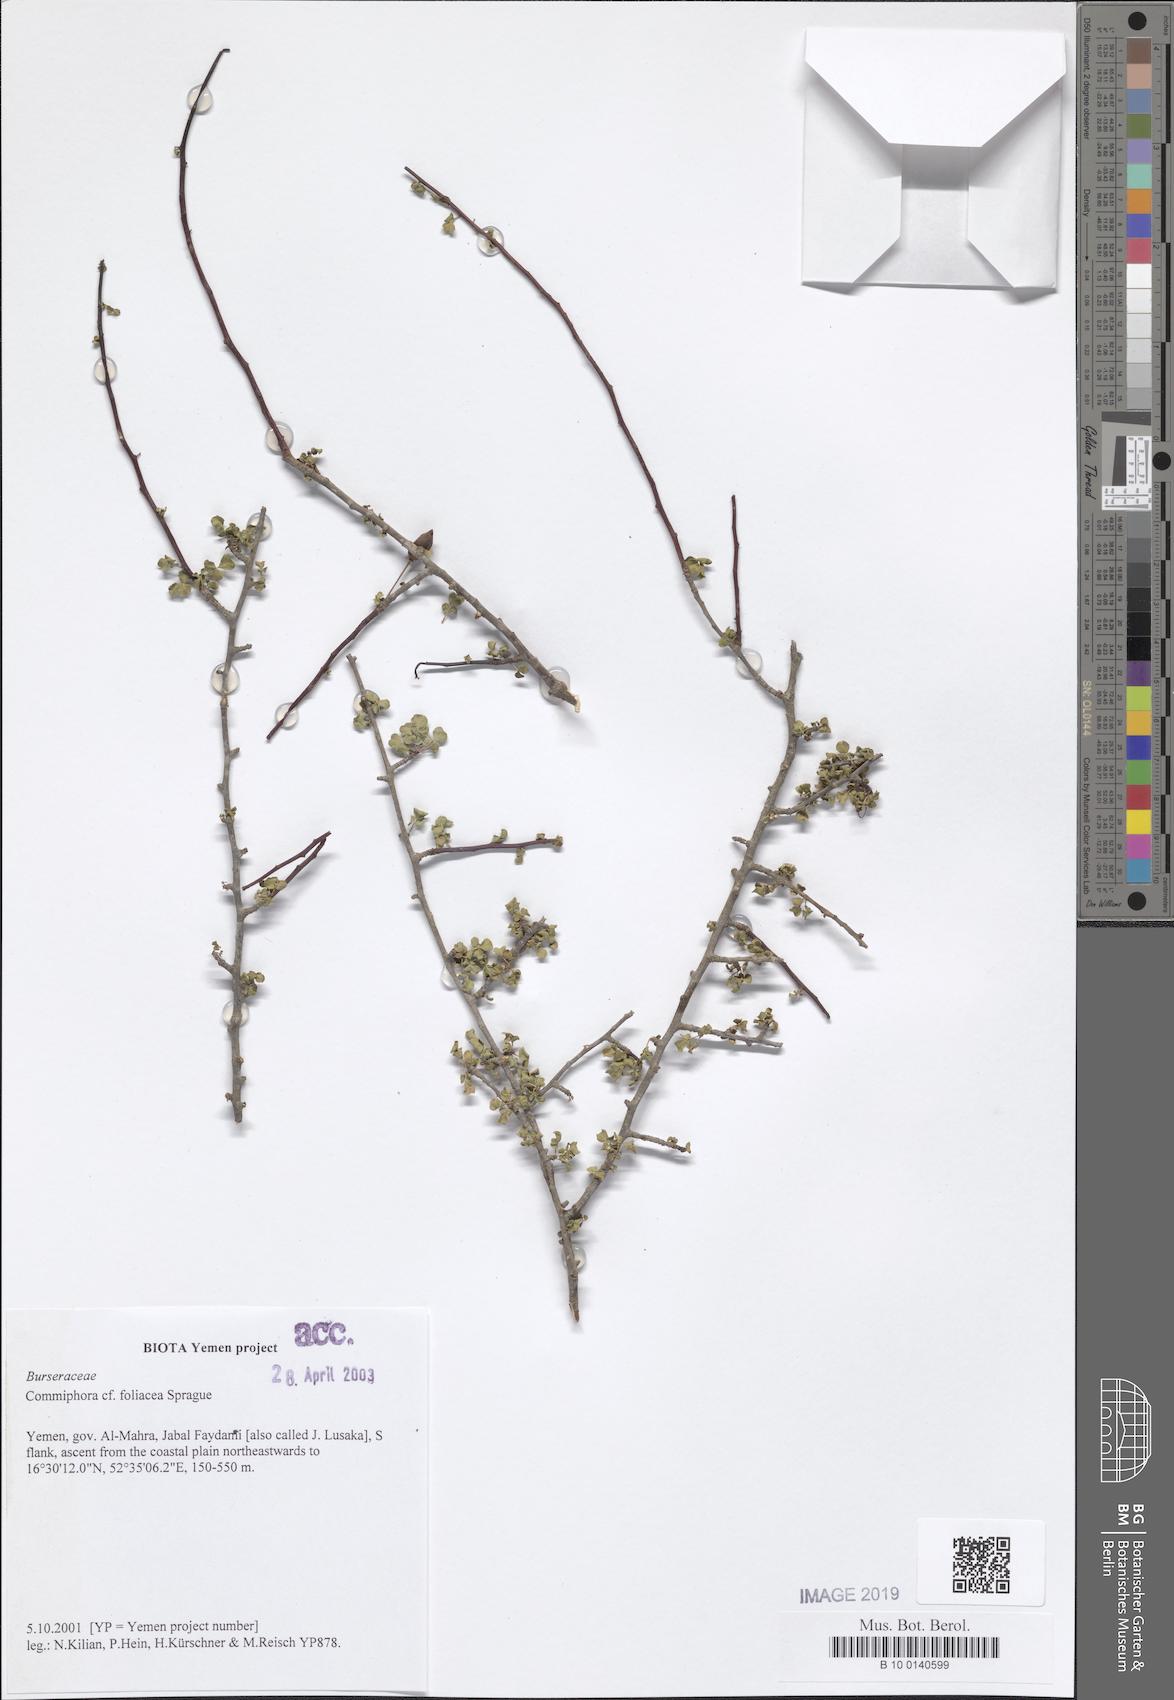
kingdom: Plantae
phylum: Tracheophyta
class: Magnoliopsida
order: Sapindales
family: Burseraceae
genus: Commiphora
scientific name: Commiphora foliacea
